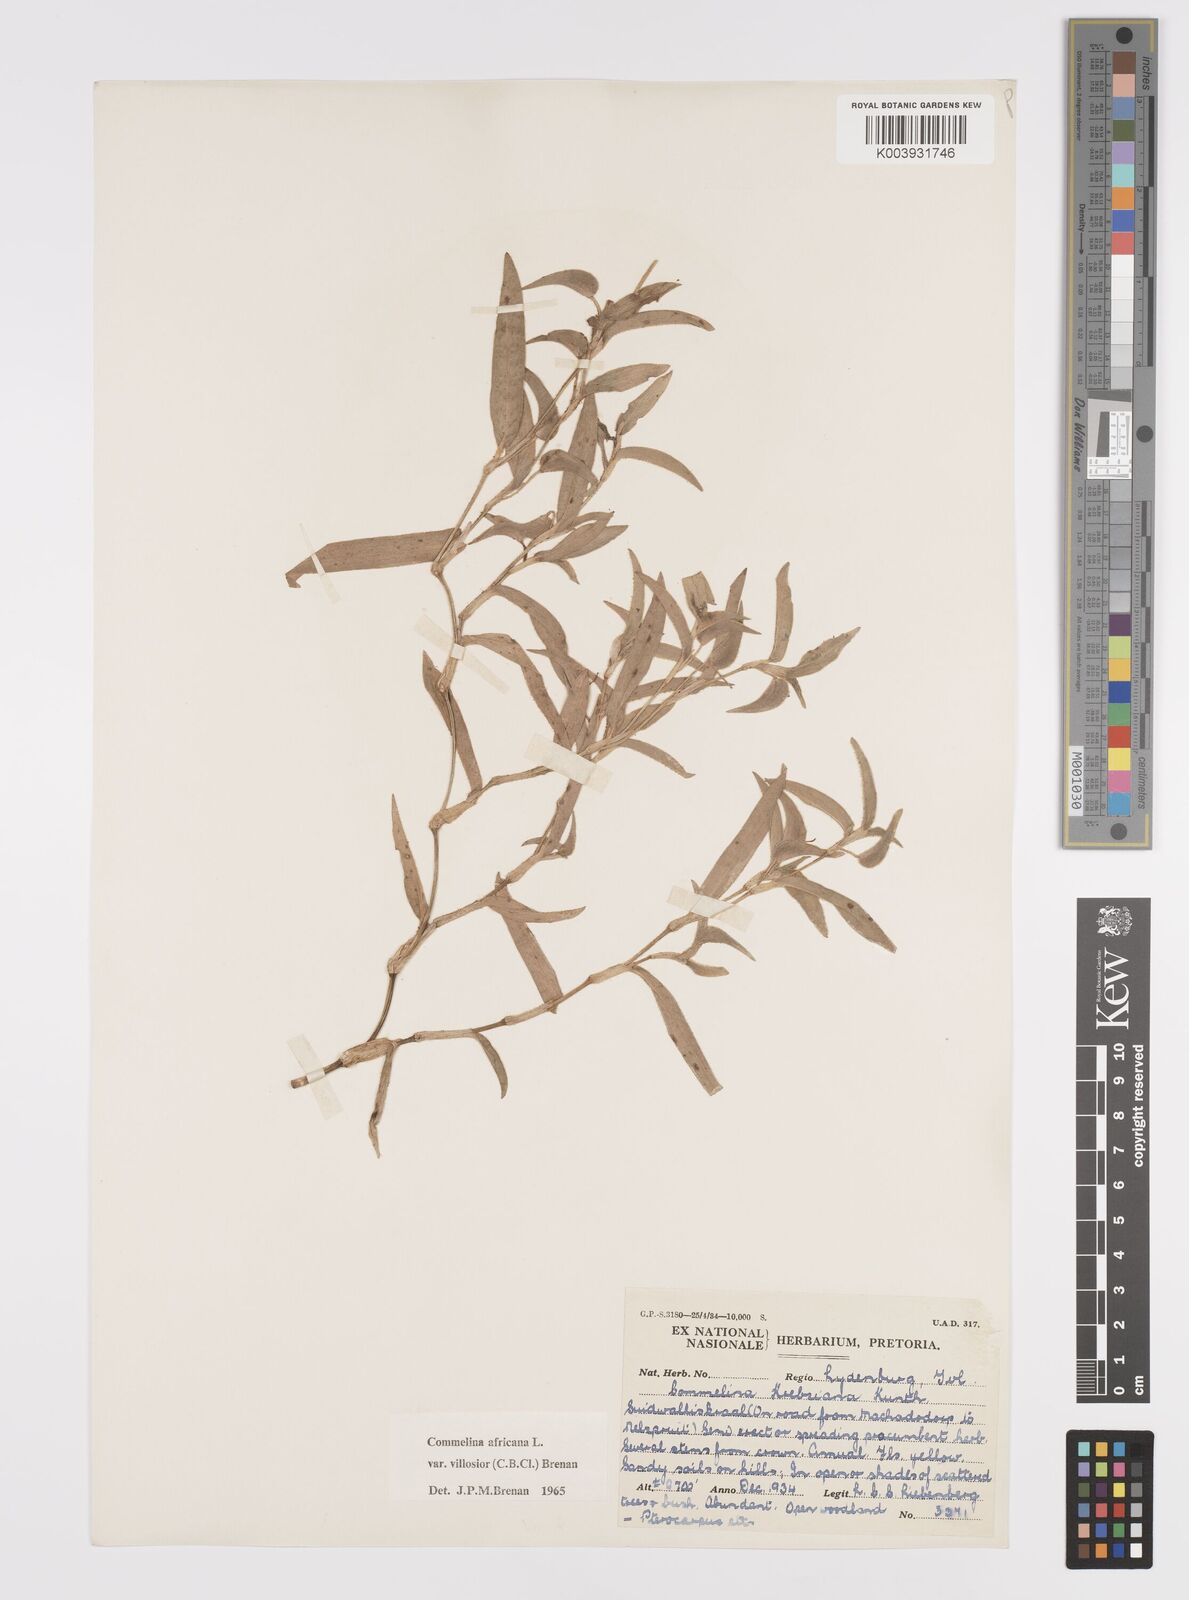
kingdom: Plantae
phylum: Tracheophyta
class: Liliopsida
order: Commelinales
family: Commelinaceae
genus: Commelina
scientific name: Commelina africana
